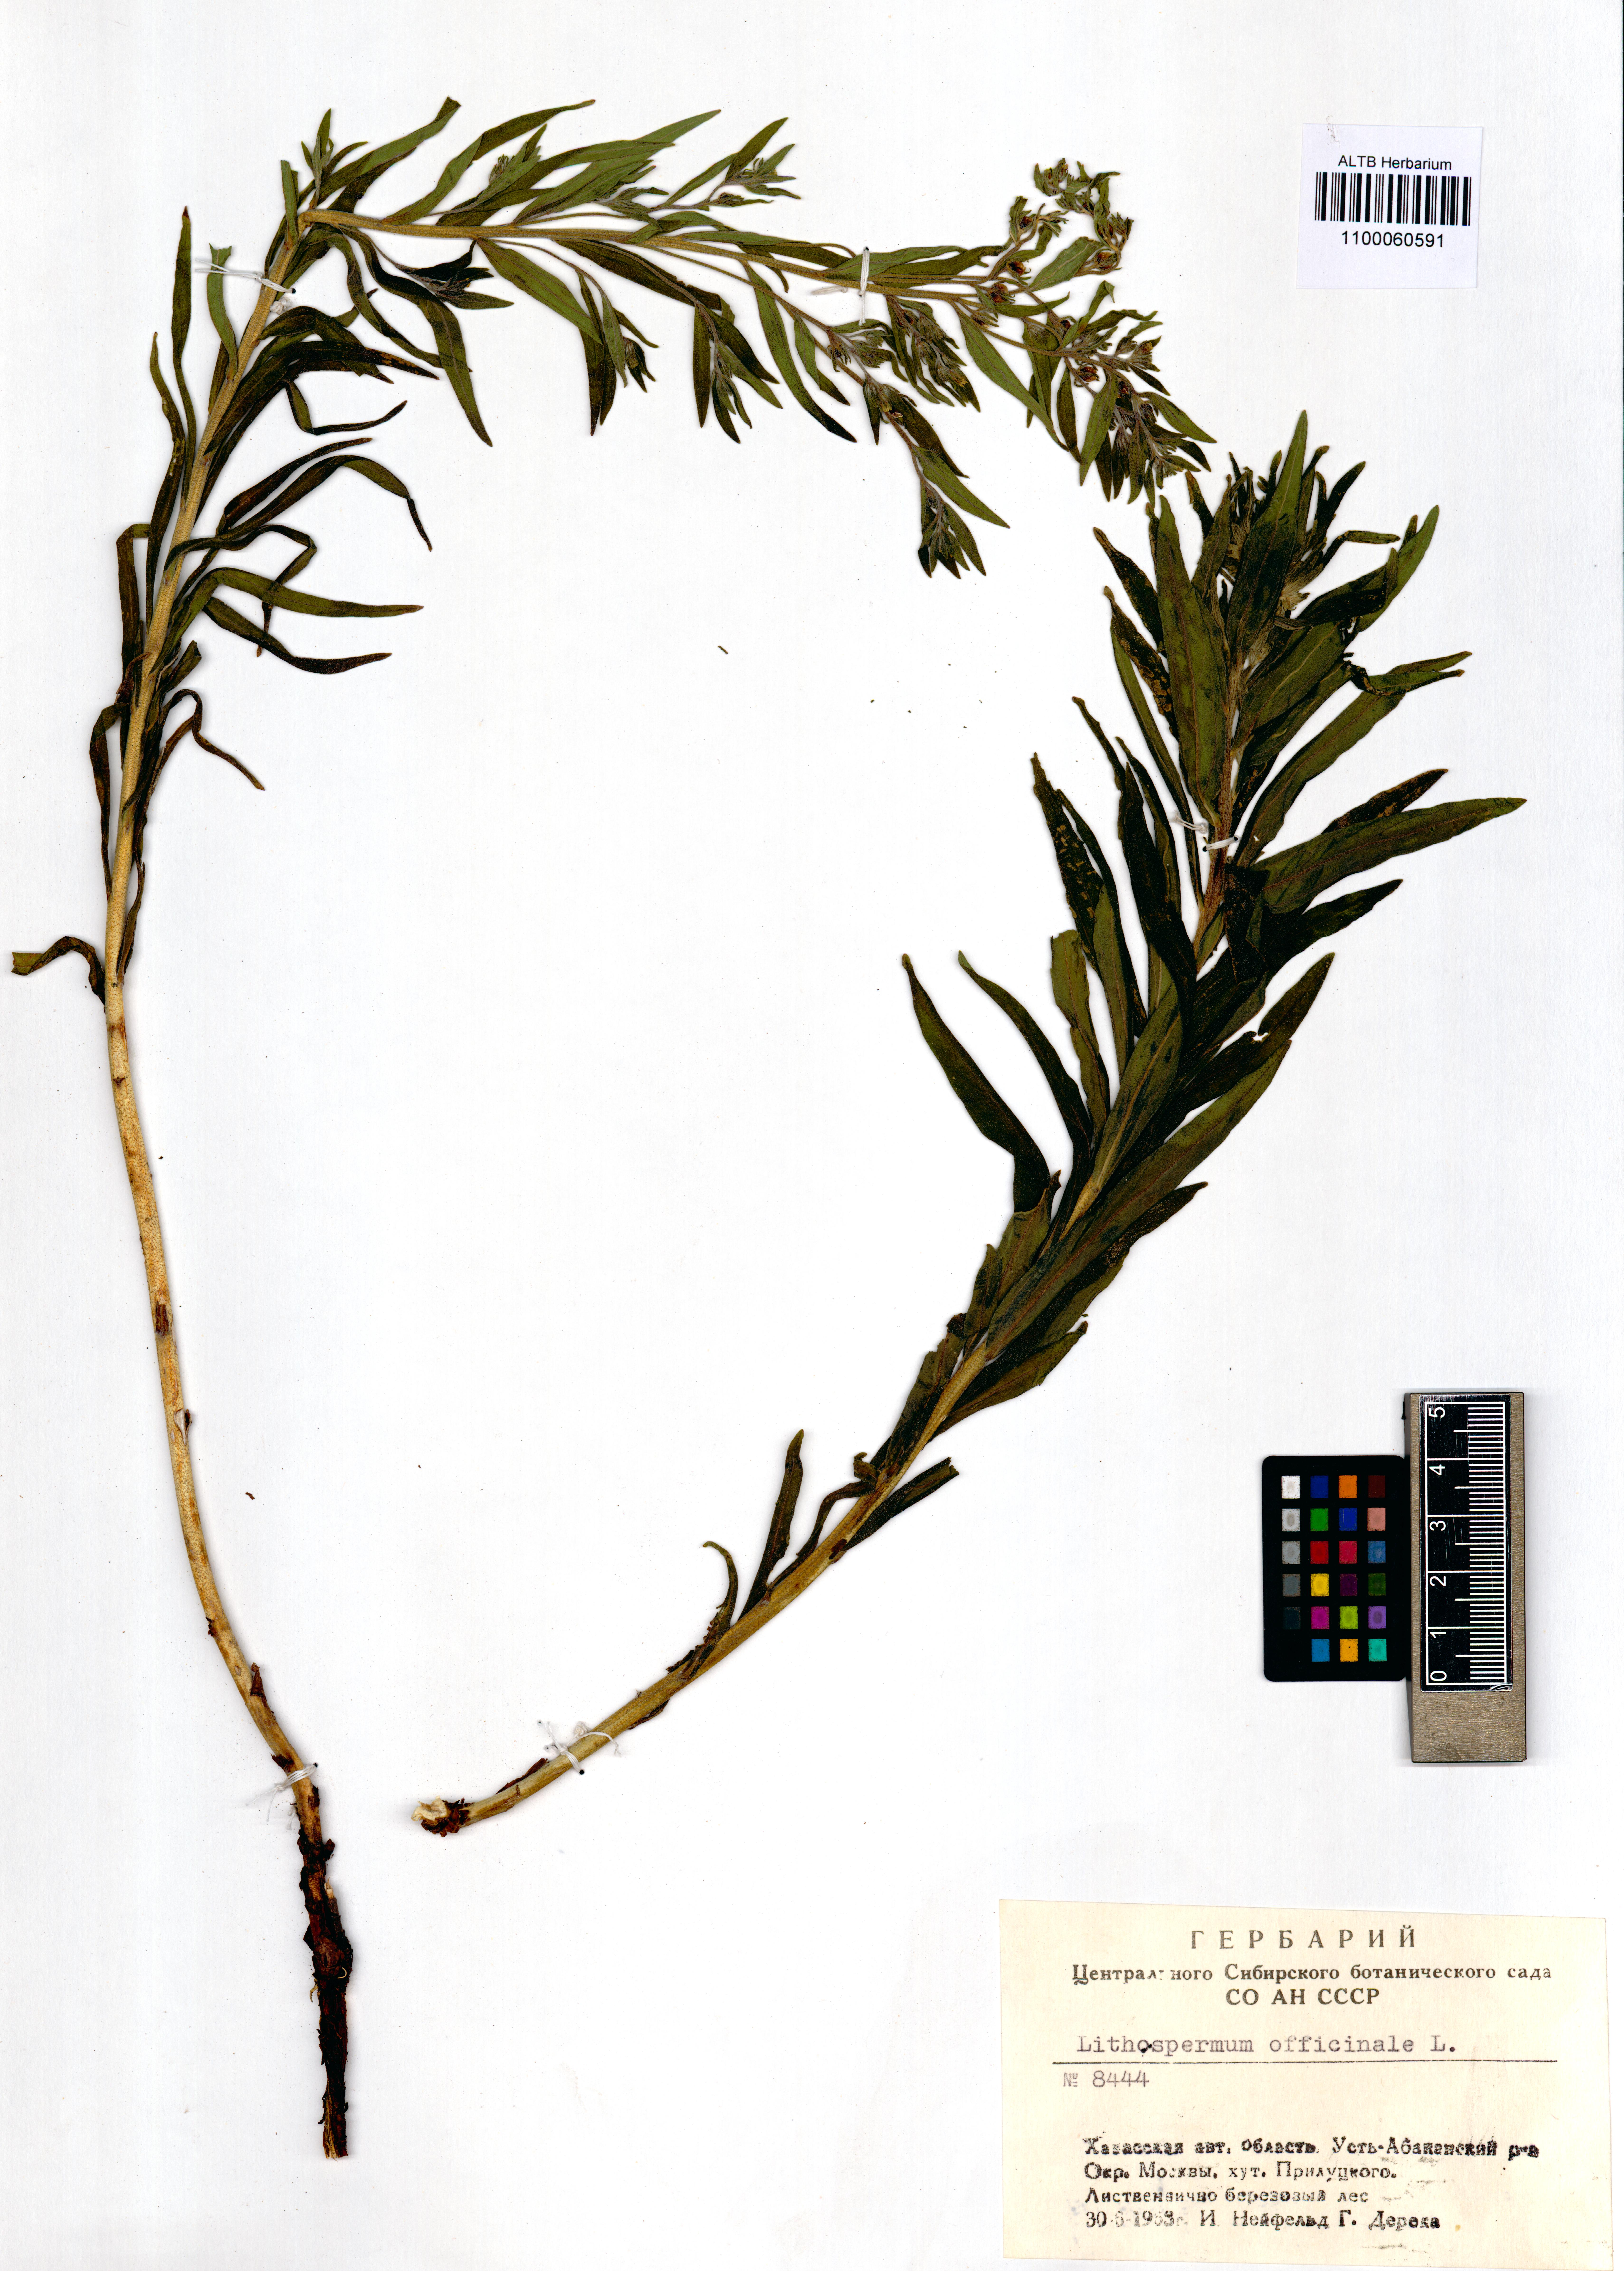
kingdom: Plantae
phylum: Tracheophyta
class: Magnoliopsida
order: Boraginales
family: Boraginaceae
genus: Lithospermum
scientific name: Lithospermum officinale
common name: Common gromwell
